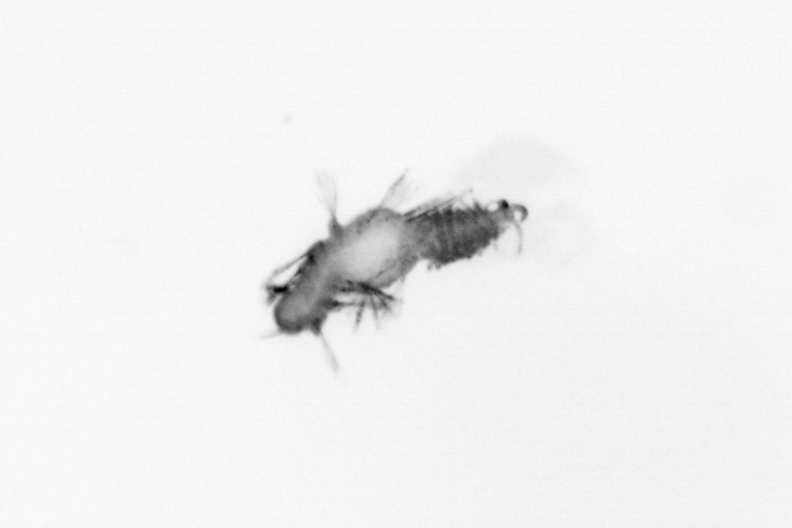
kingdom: Animalia
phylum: Annelida
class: Polychaeta
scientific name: Polychaeta
